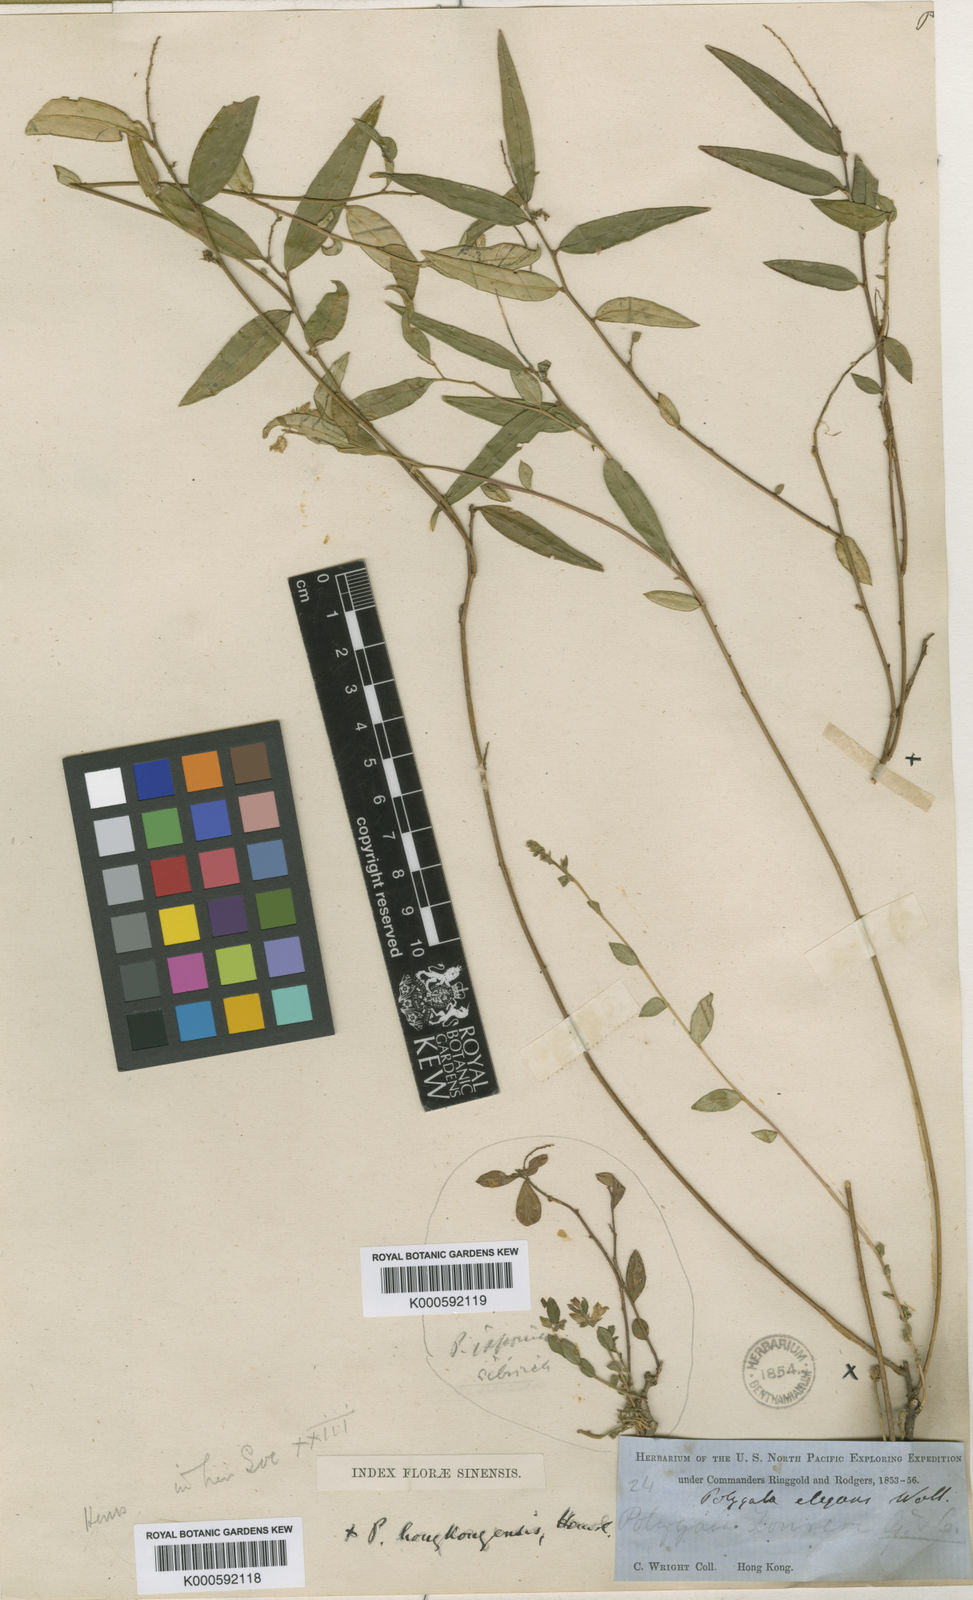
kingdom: Plantae
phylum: Tracheophyta
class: Magnoliopsida
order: Fabales
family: Polygalaceae
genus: Polygala
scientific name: Polygala
